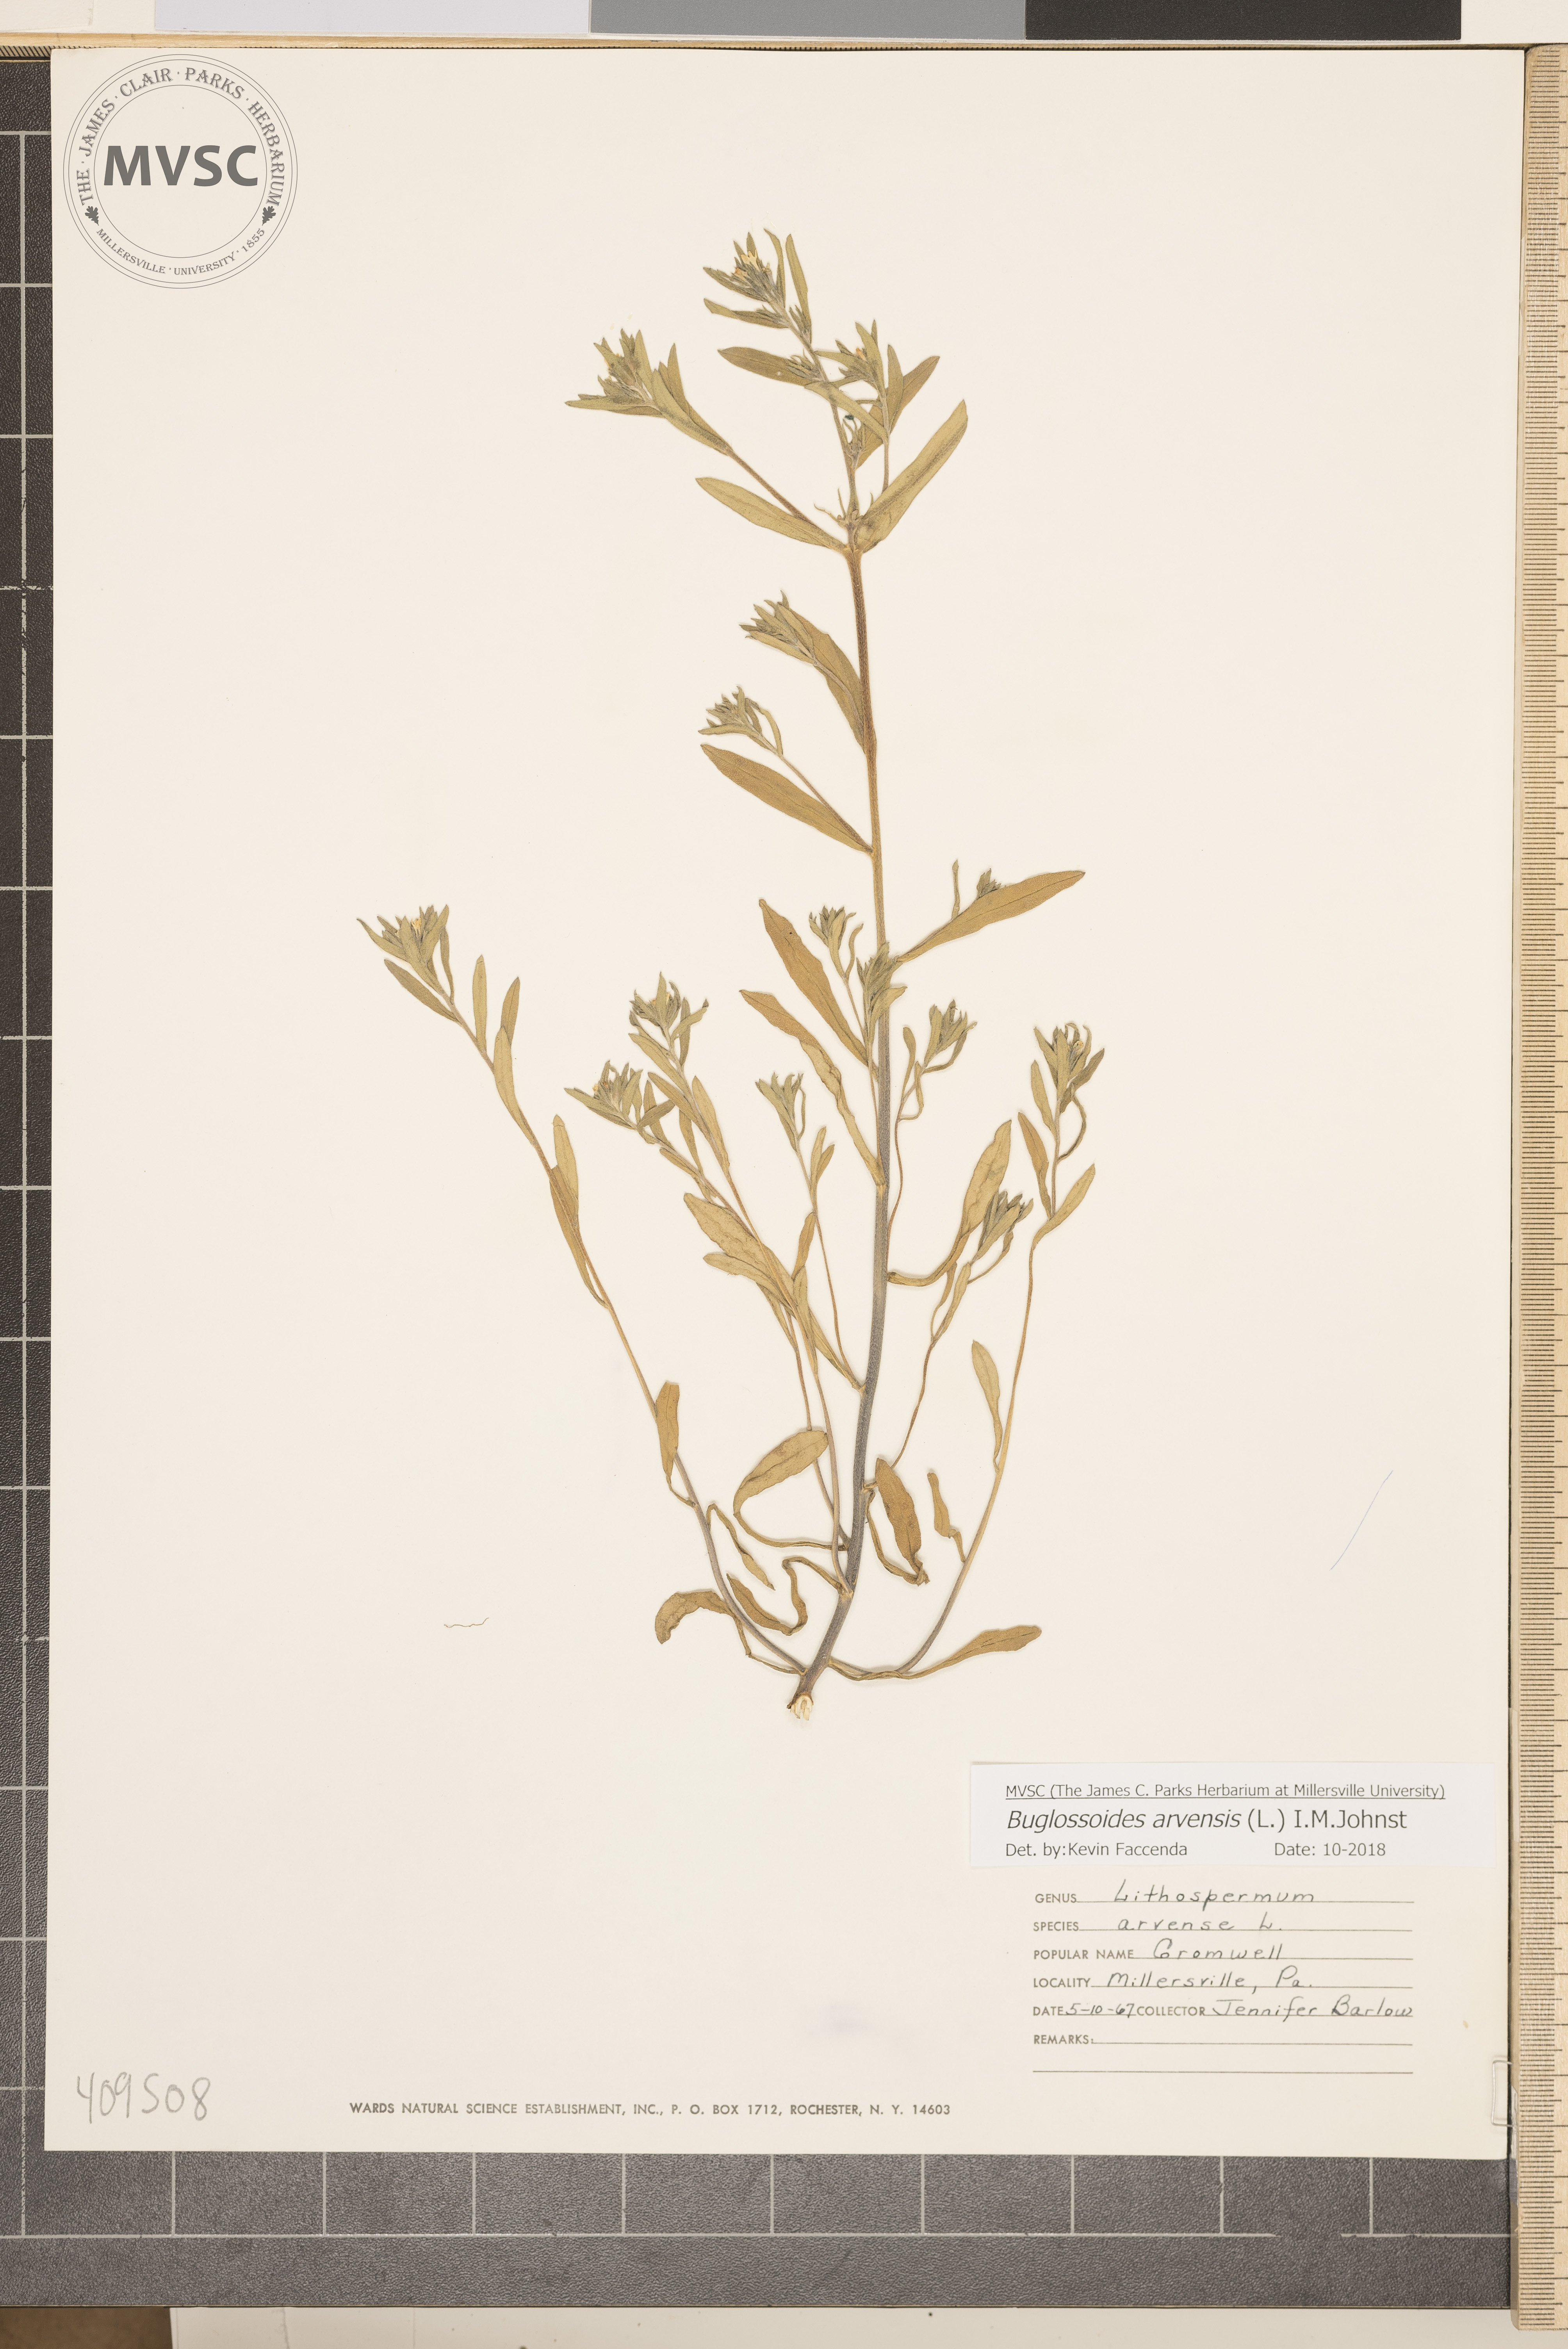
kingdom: Plantae
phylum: Tracheophyta
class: Magnoliopsida
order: Boraginales
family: Boraginaceae
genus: Buglossoides
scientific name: Buglossoides arvensis
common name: Corn gromwell
